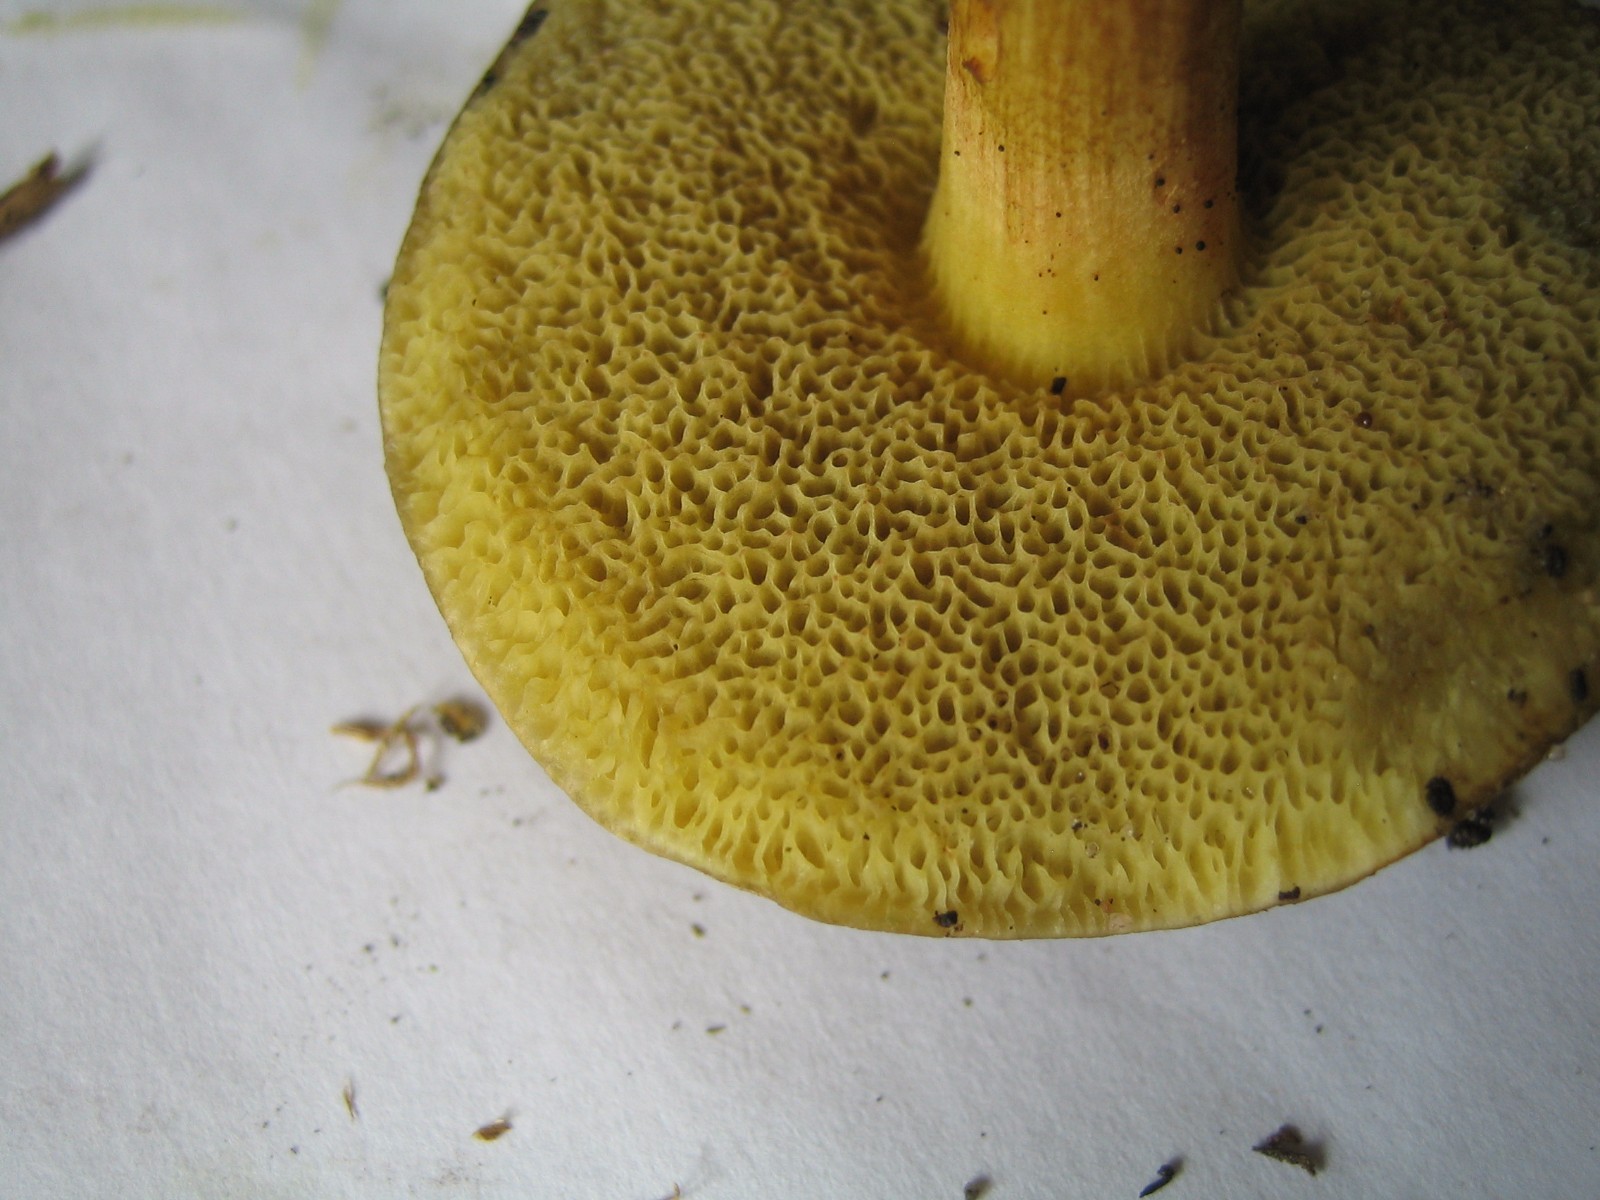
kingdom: Fungi
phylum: Basidiomycota
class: Agaricomycetes
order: Boletales
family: Boletaceae
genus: Xerocomellus
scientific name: Xerocomellus cisalpinus
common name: finsprukken rørhat
